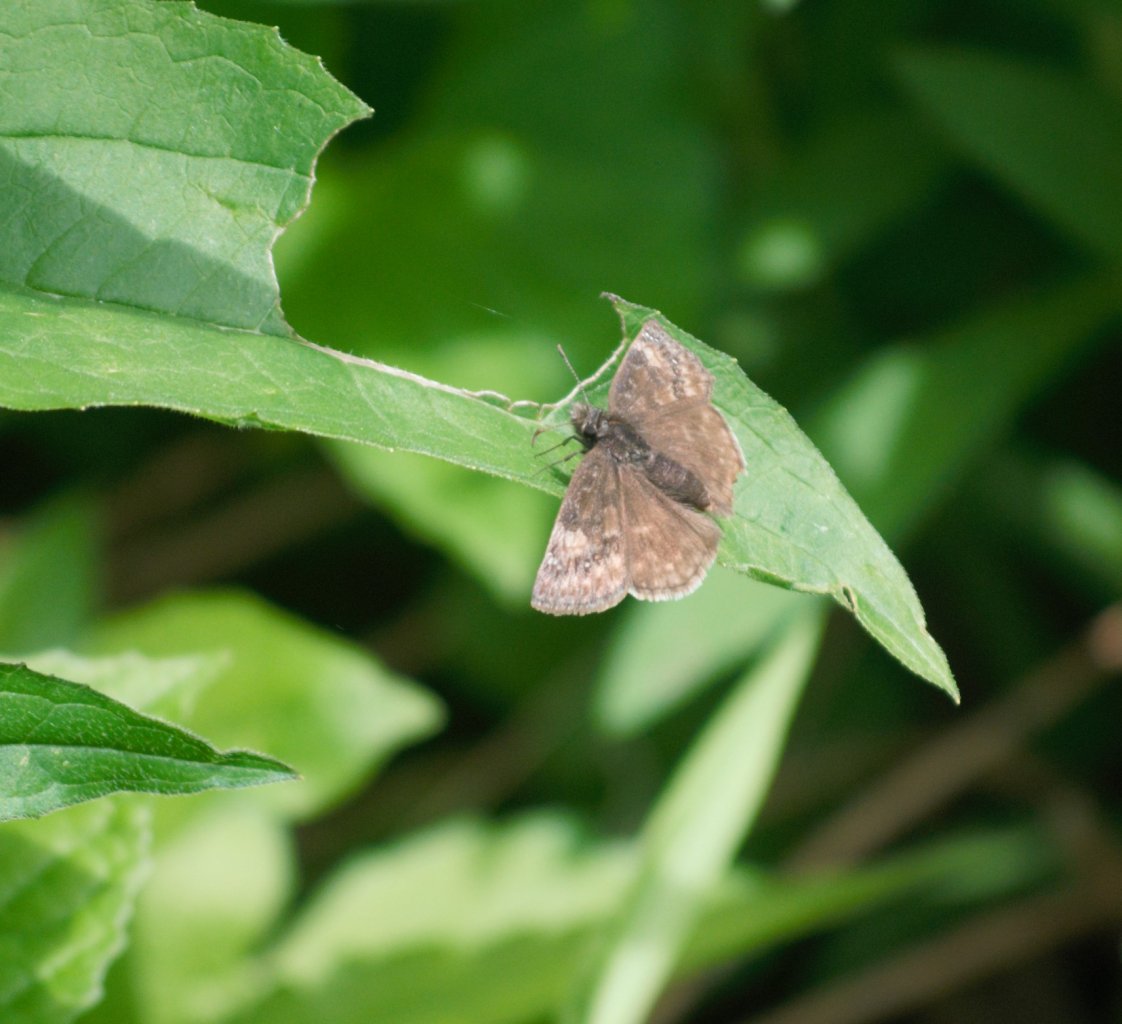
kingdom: Animalia
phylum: Arthropoda
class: Insecta
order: Lepidoptera
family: Hesperiidae
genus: Gesta
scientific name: Gesta
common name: Wild Indigo Duskywing
